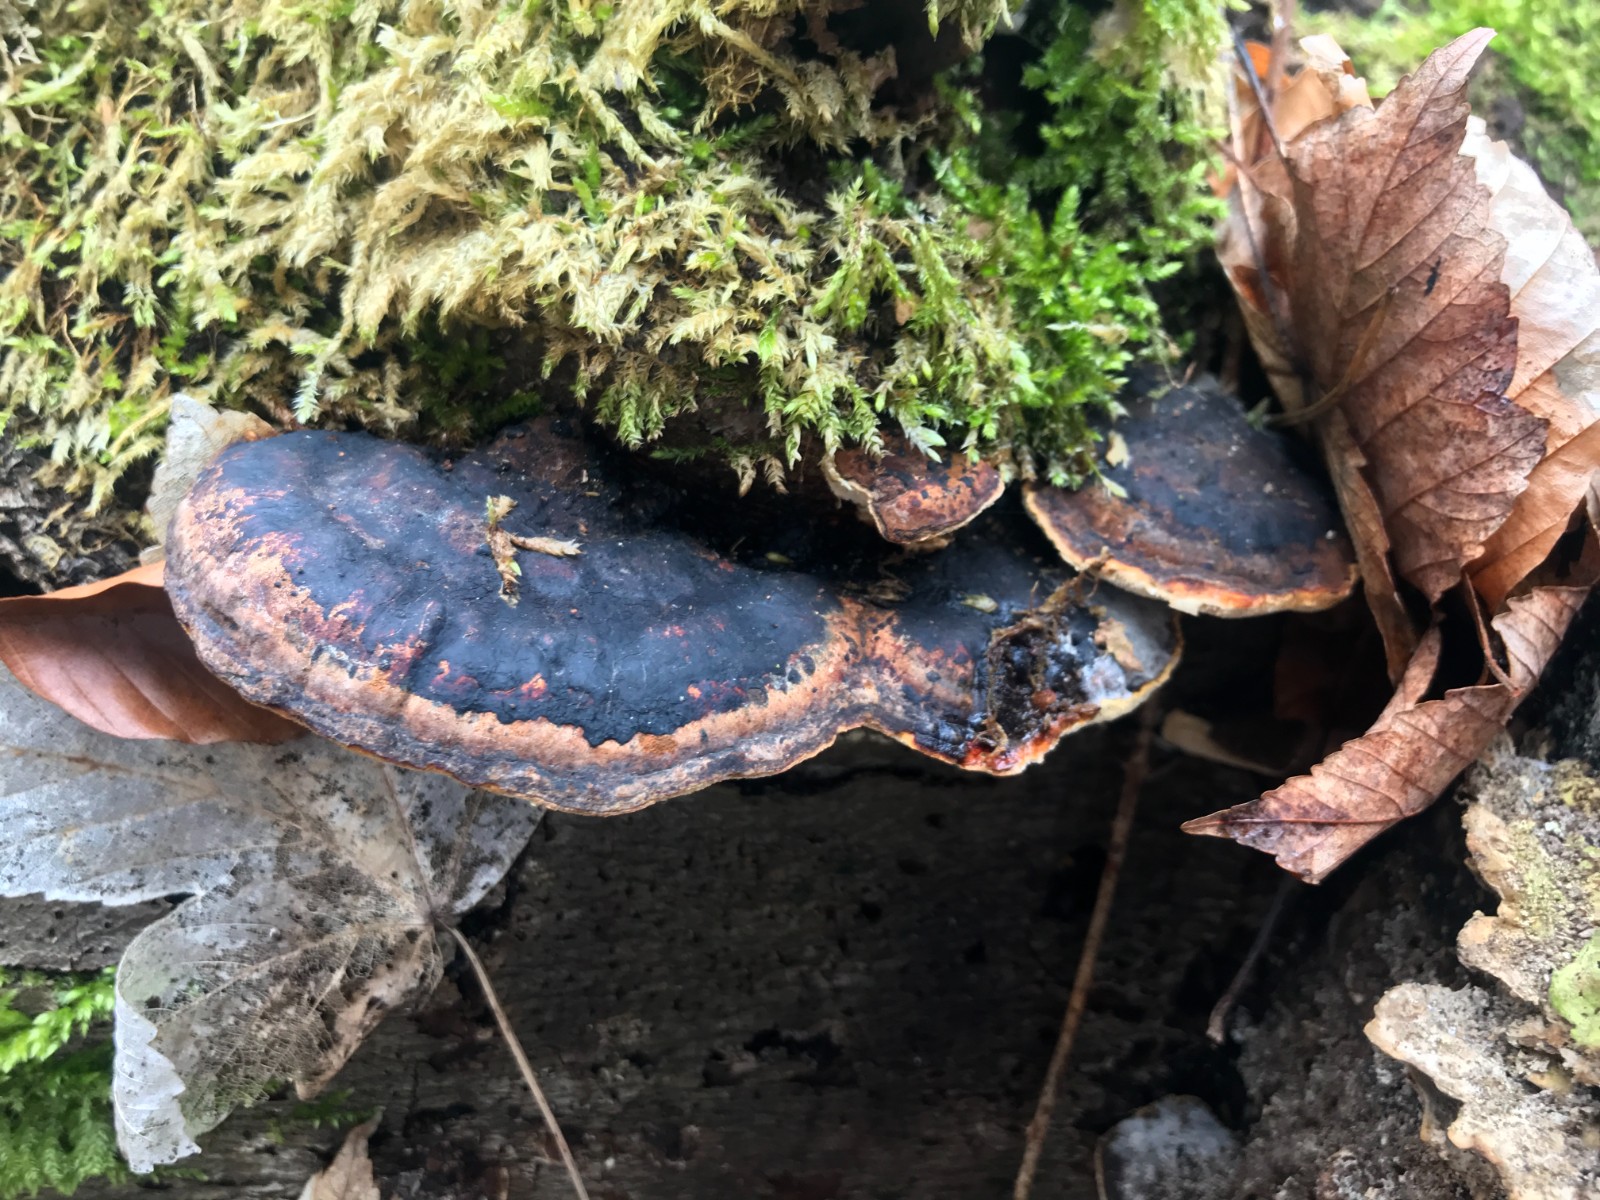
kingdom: Fungi
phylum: Basidiomycota
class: Agaricomycetes
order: Polyporales
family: Ischnodermataceae
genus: Ischnoderma
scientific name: Ischnoderma resinosum
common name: løv-tjæreporesvamp
